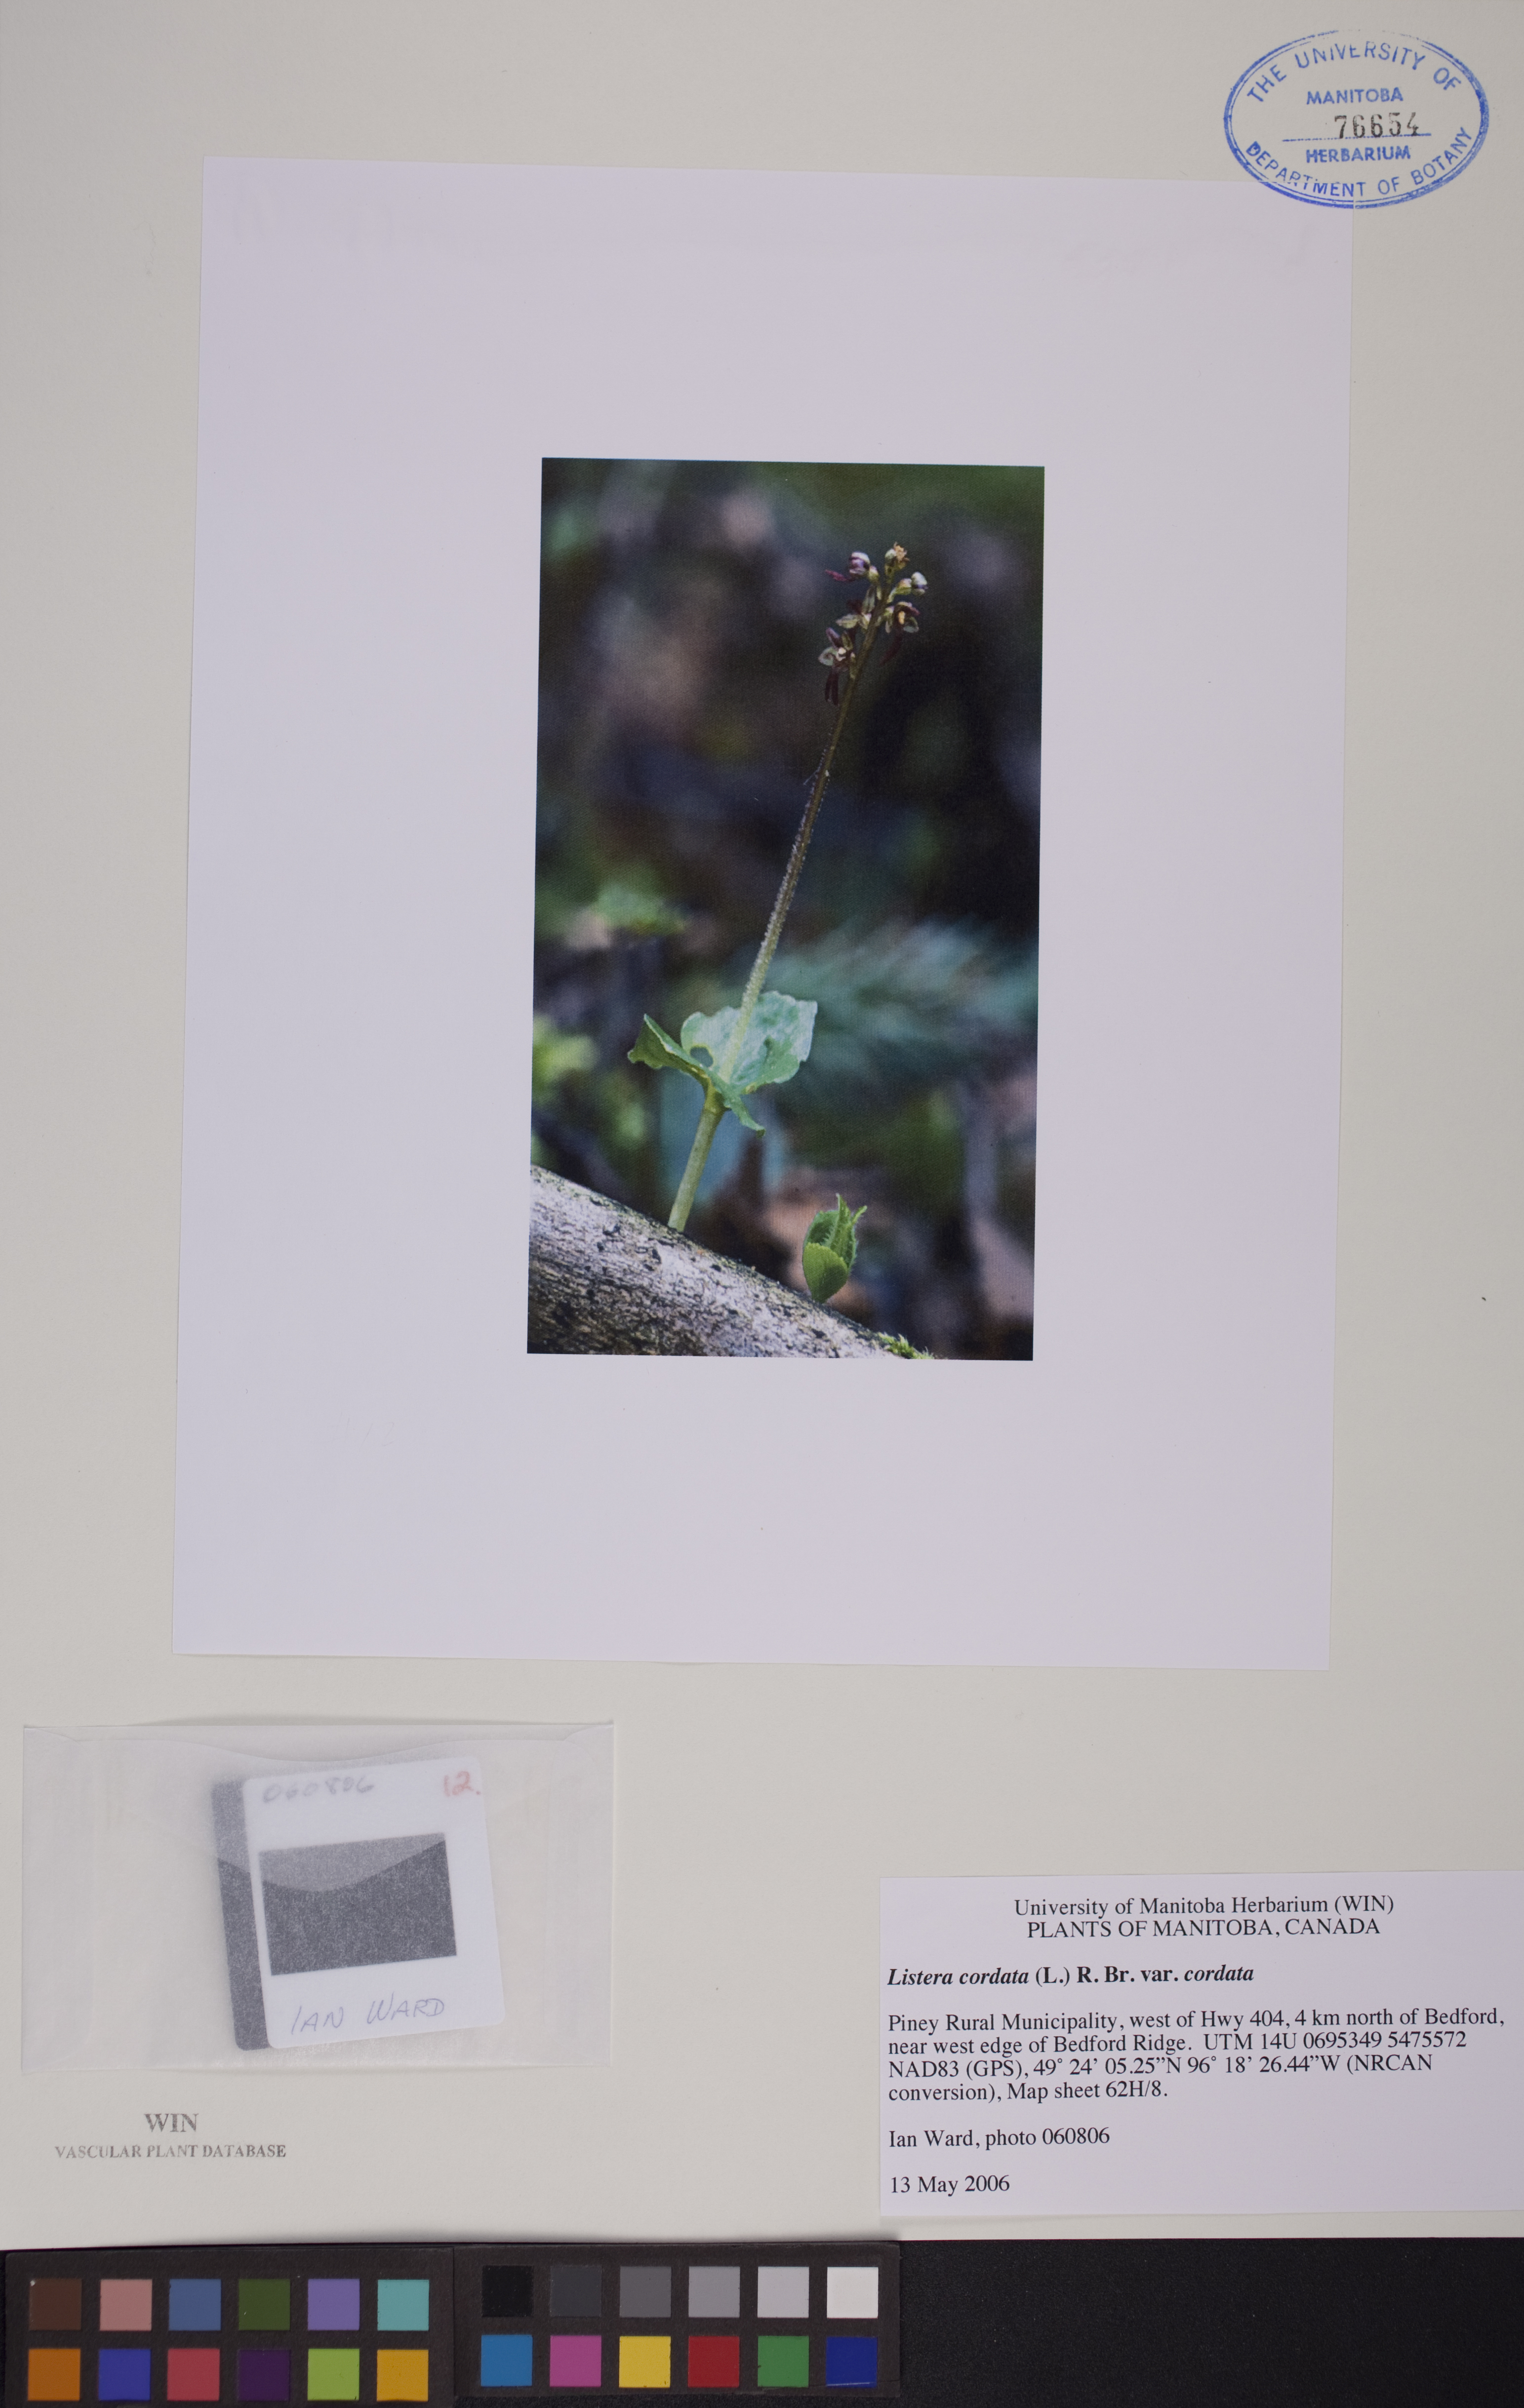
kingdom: Plantae
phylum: Tracheophyta
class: Liliopsida
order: Asparagales
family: Orchidaceae
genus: Neottia
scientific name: Neottia cordata
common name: Lesser twayblade
